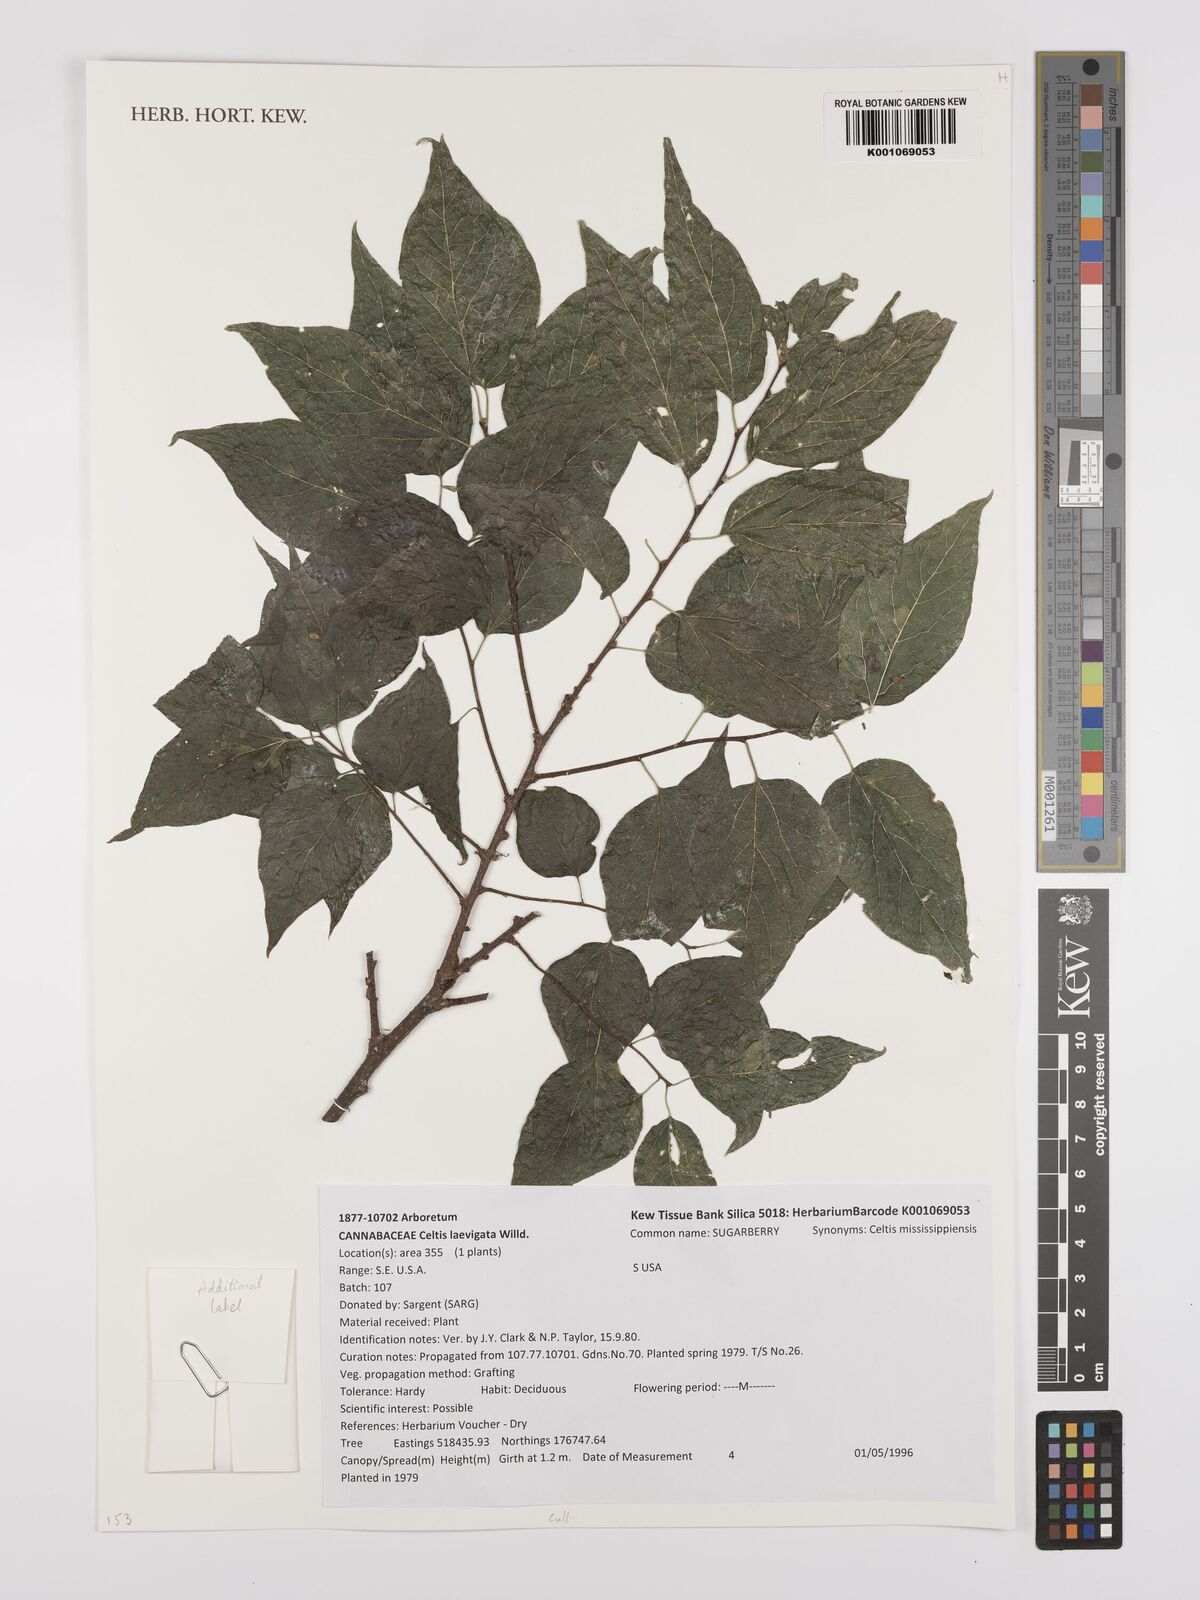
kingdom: Plantae
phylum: Tracheophyta
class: Magnoliopsida
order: Rosales
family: Cannabaceae
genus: Celtis
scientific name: Celtis laevigata
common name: Sugarberry
